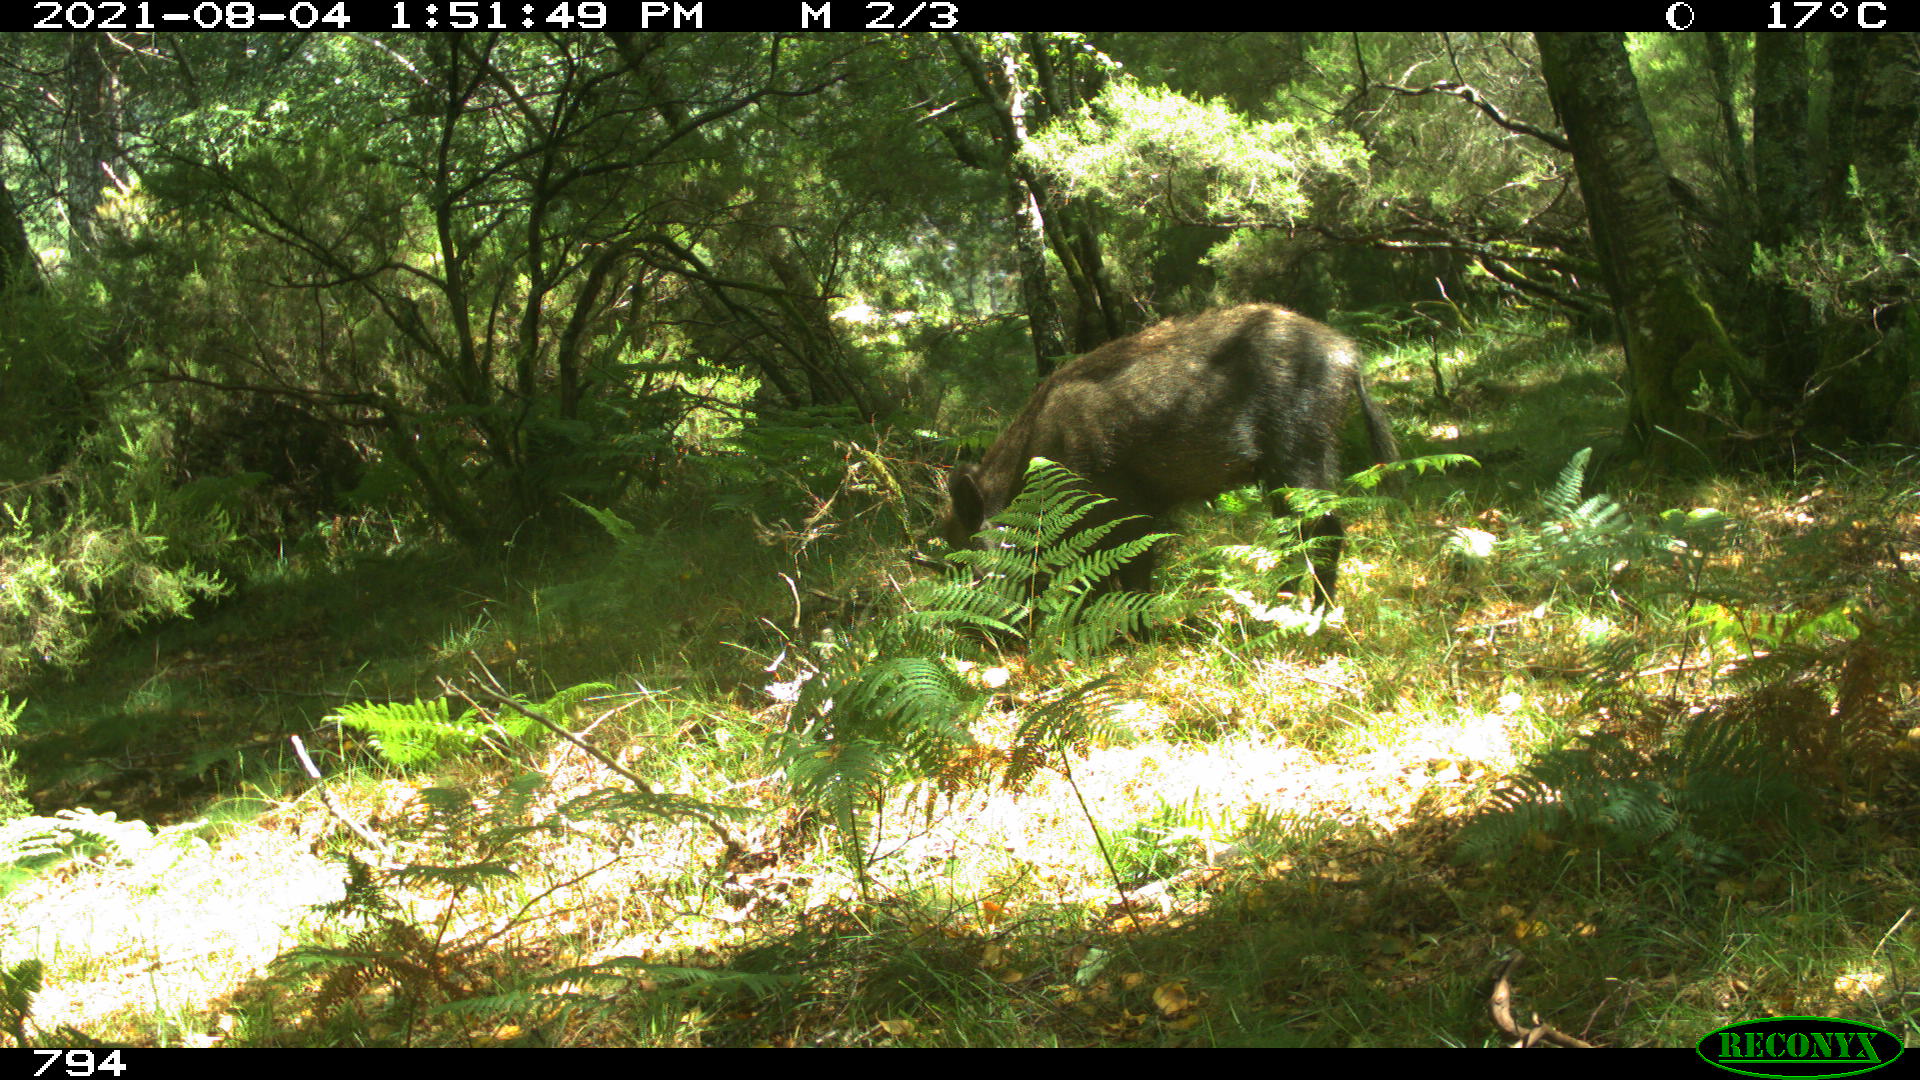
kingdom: Animalia
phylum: Chordata
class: Mammalia
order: Artiodactyla
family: Suidae
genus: Sus
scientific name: Sus scrofa
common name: Wild boar
